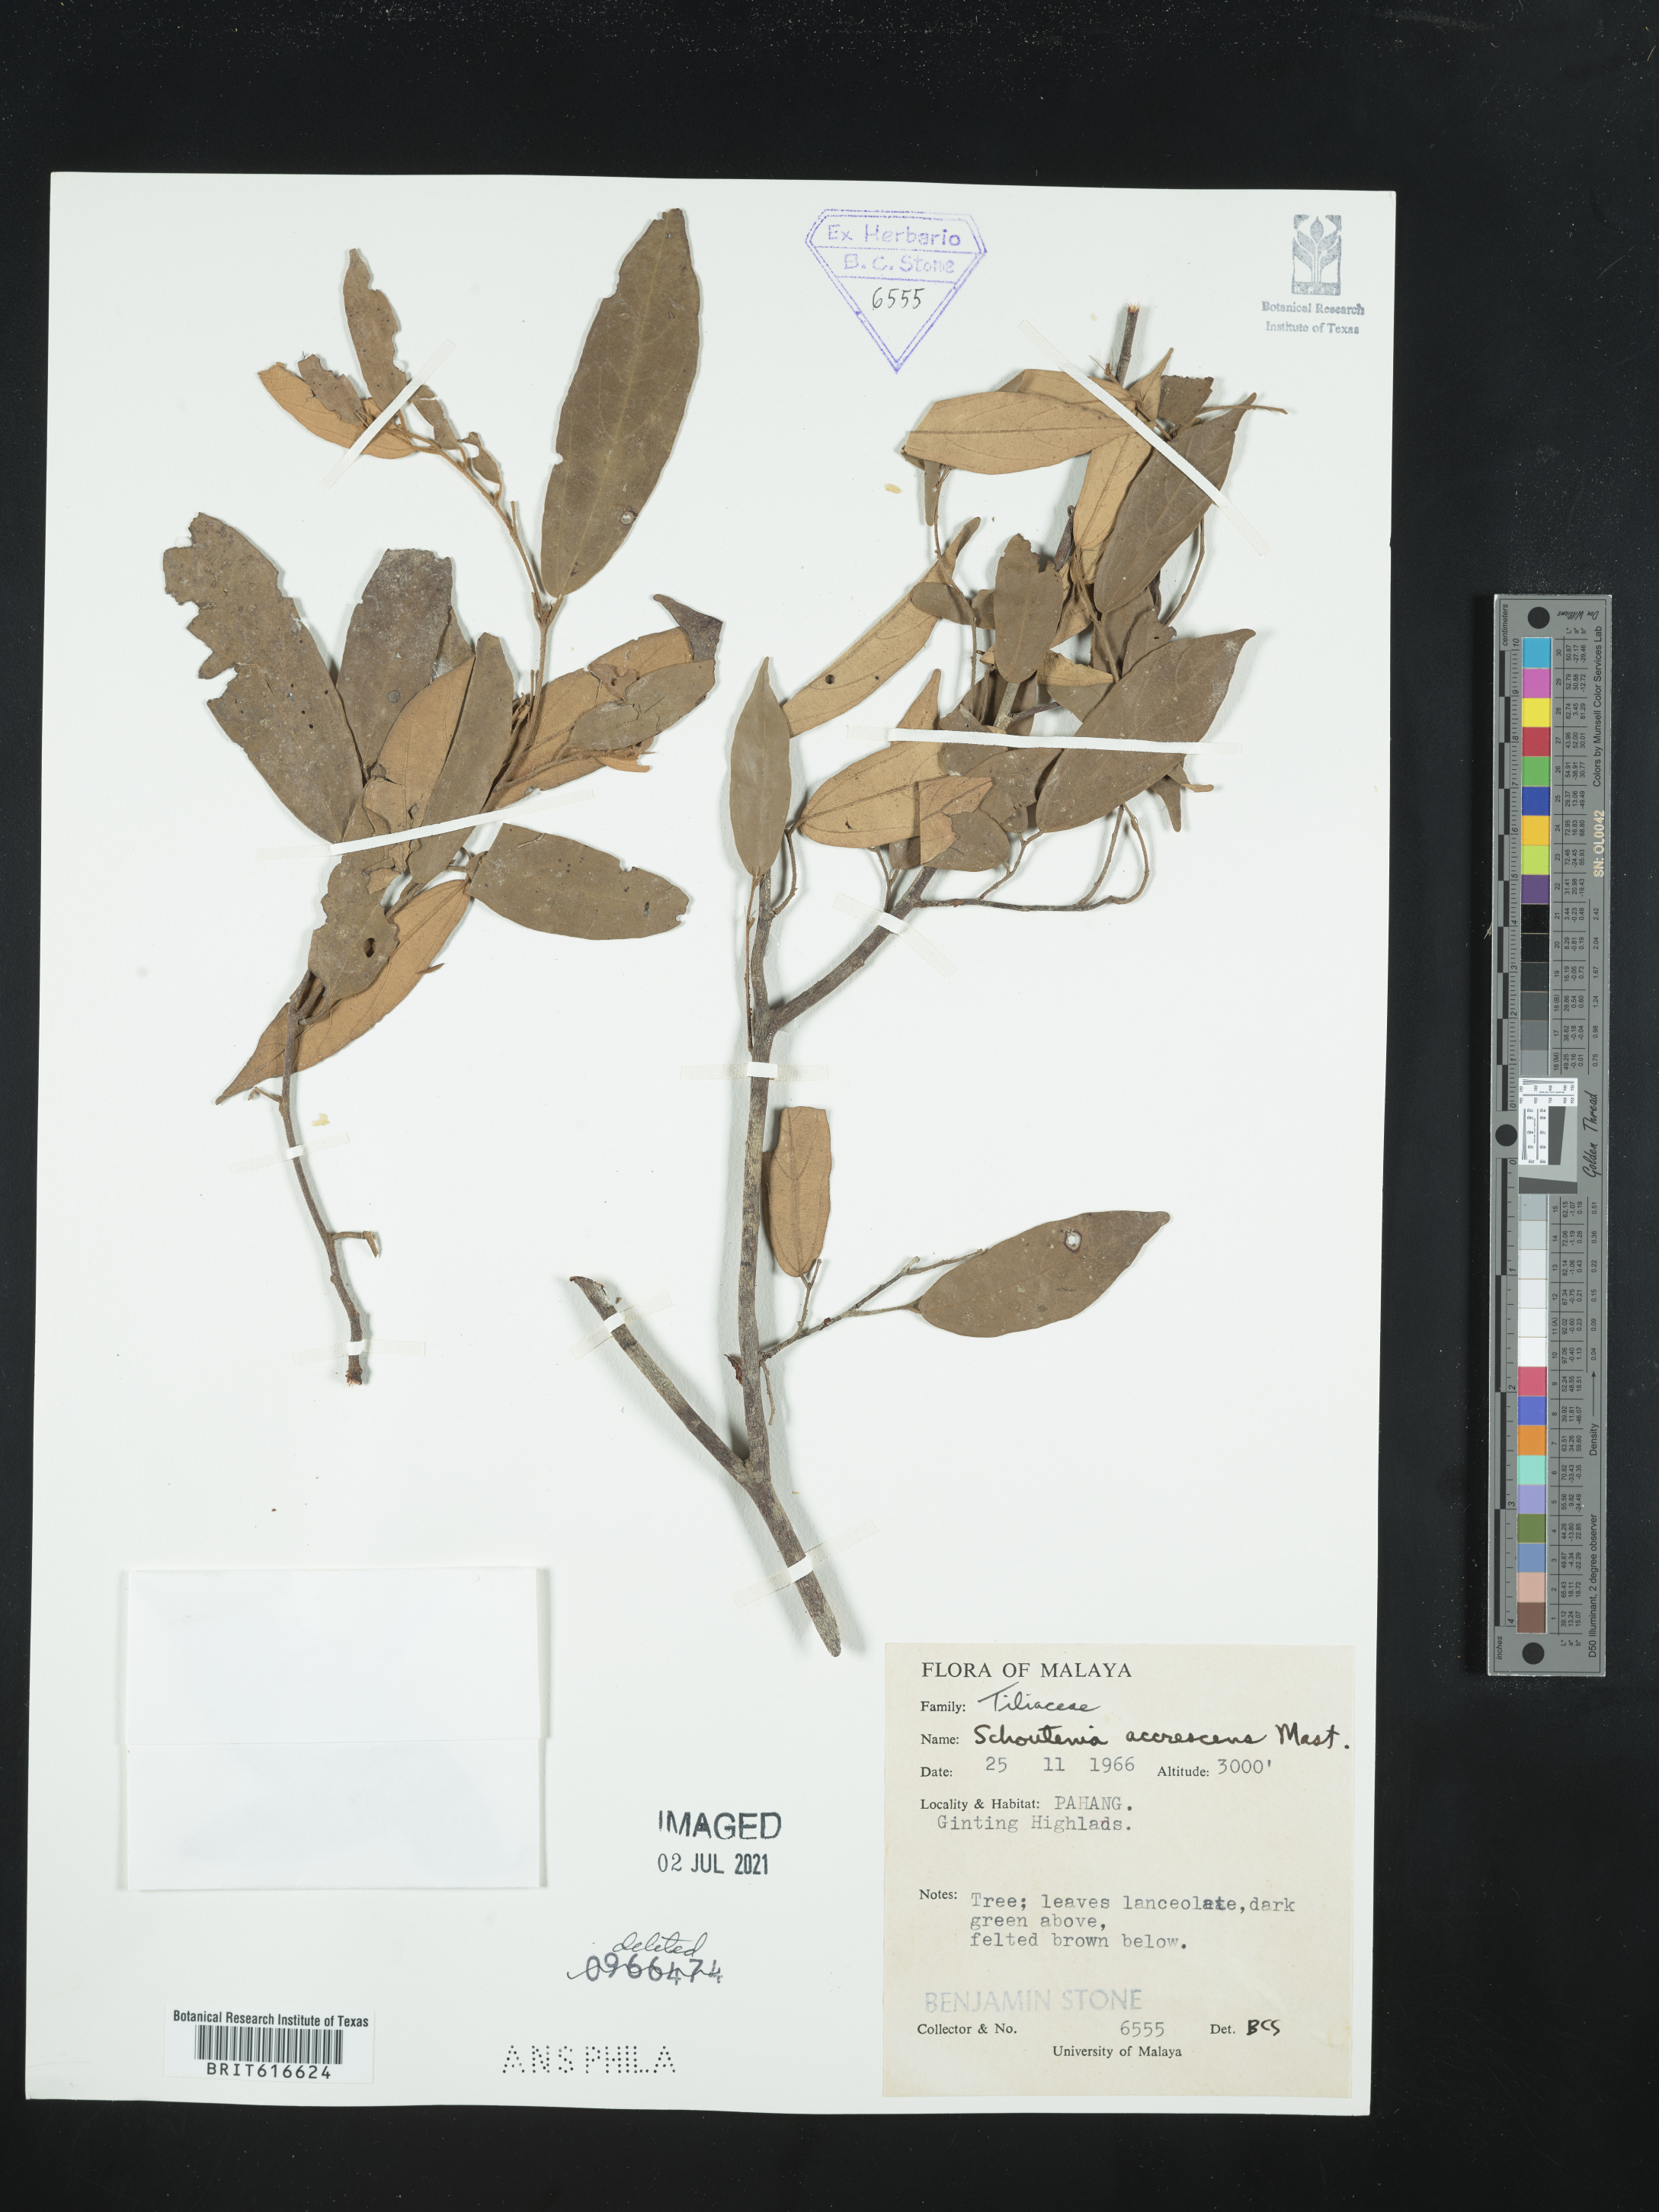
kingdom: Plantae
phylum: Tracheophyta
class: Magnoliopsida
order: Malvales
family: Malvaceae
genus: Schoutenia
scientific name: Schoutenia accrescens
